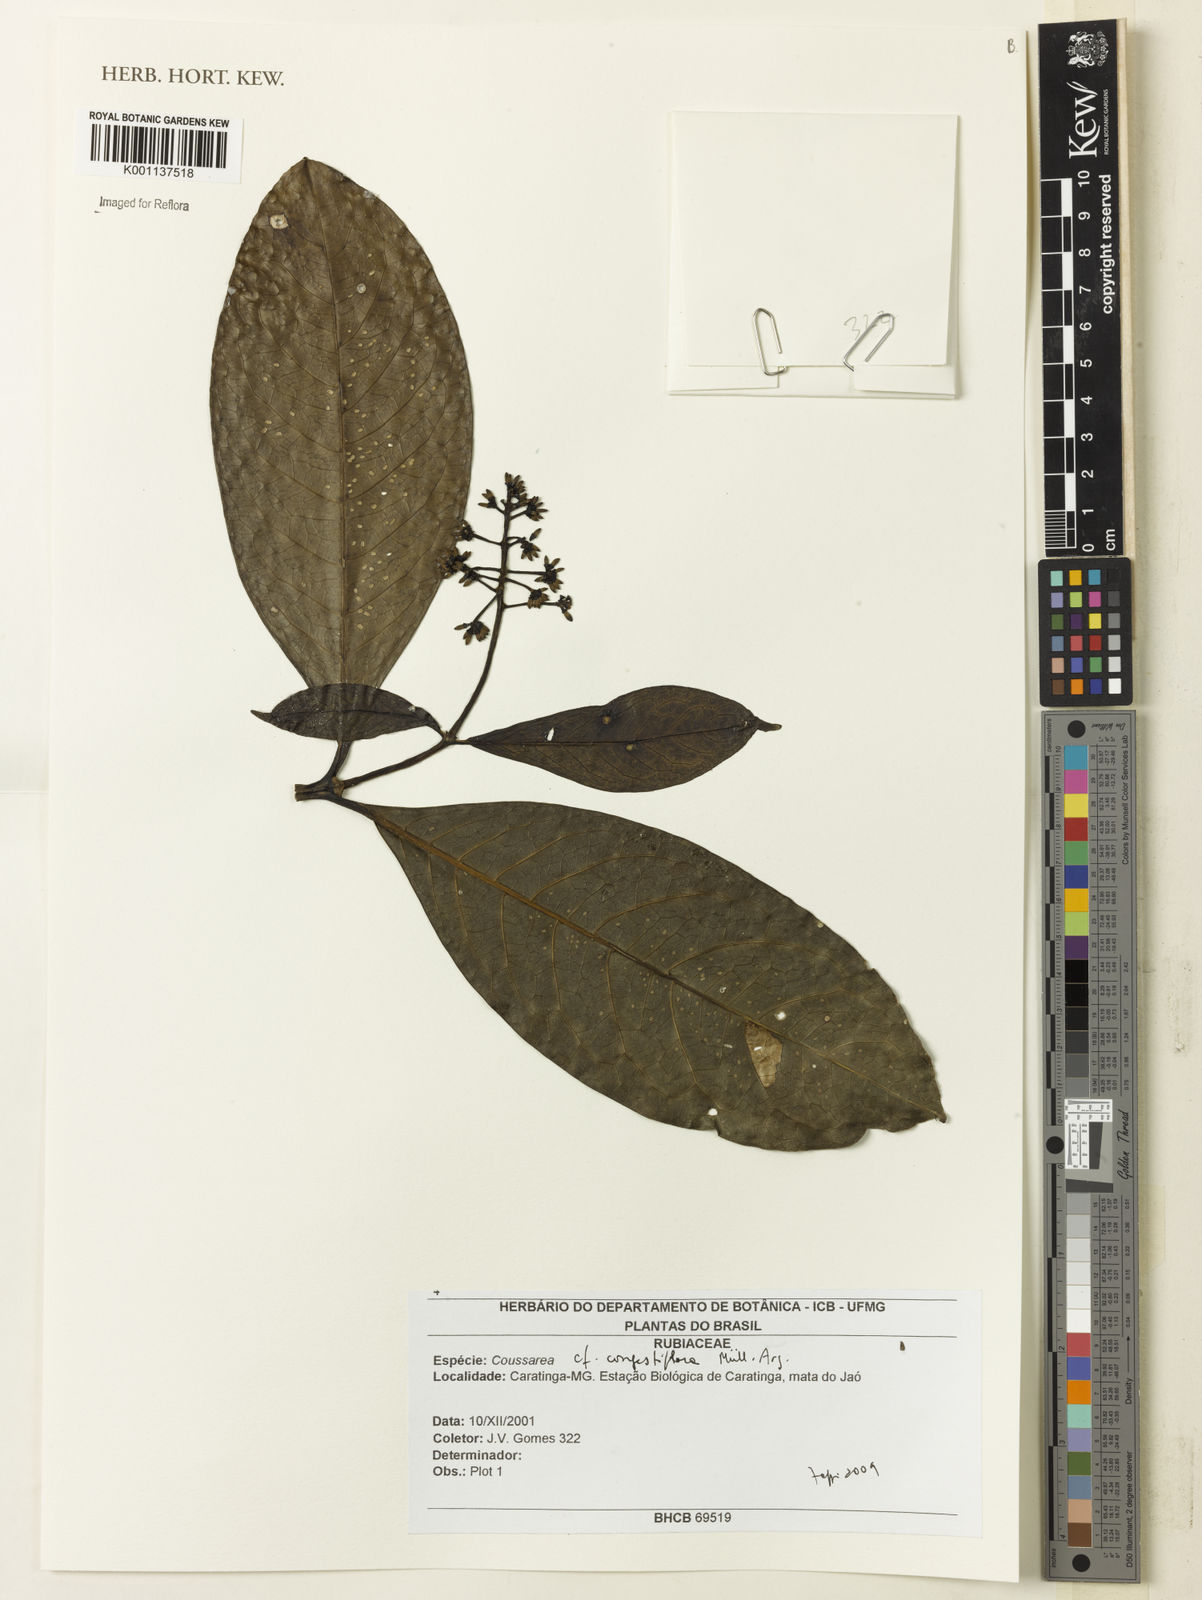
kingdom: Plantae
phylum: Tracheophyta
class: Magnoliopsida
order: Gentianales
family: Rubiaceae
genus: Coussarea
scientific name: Coussarea
